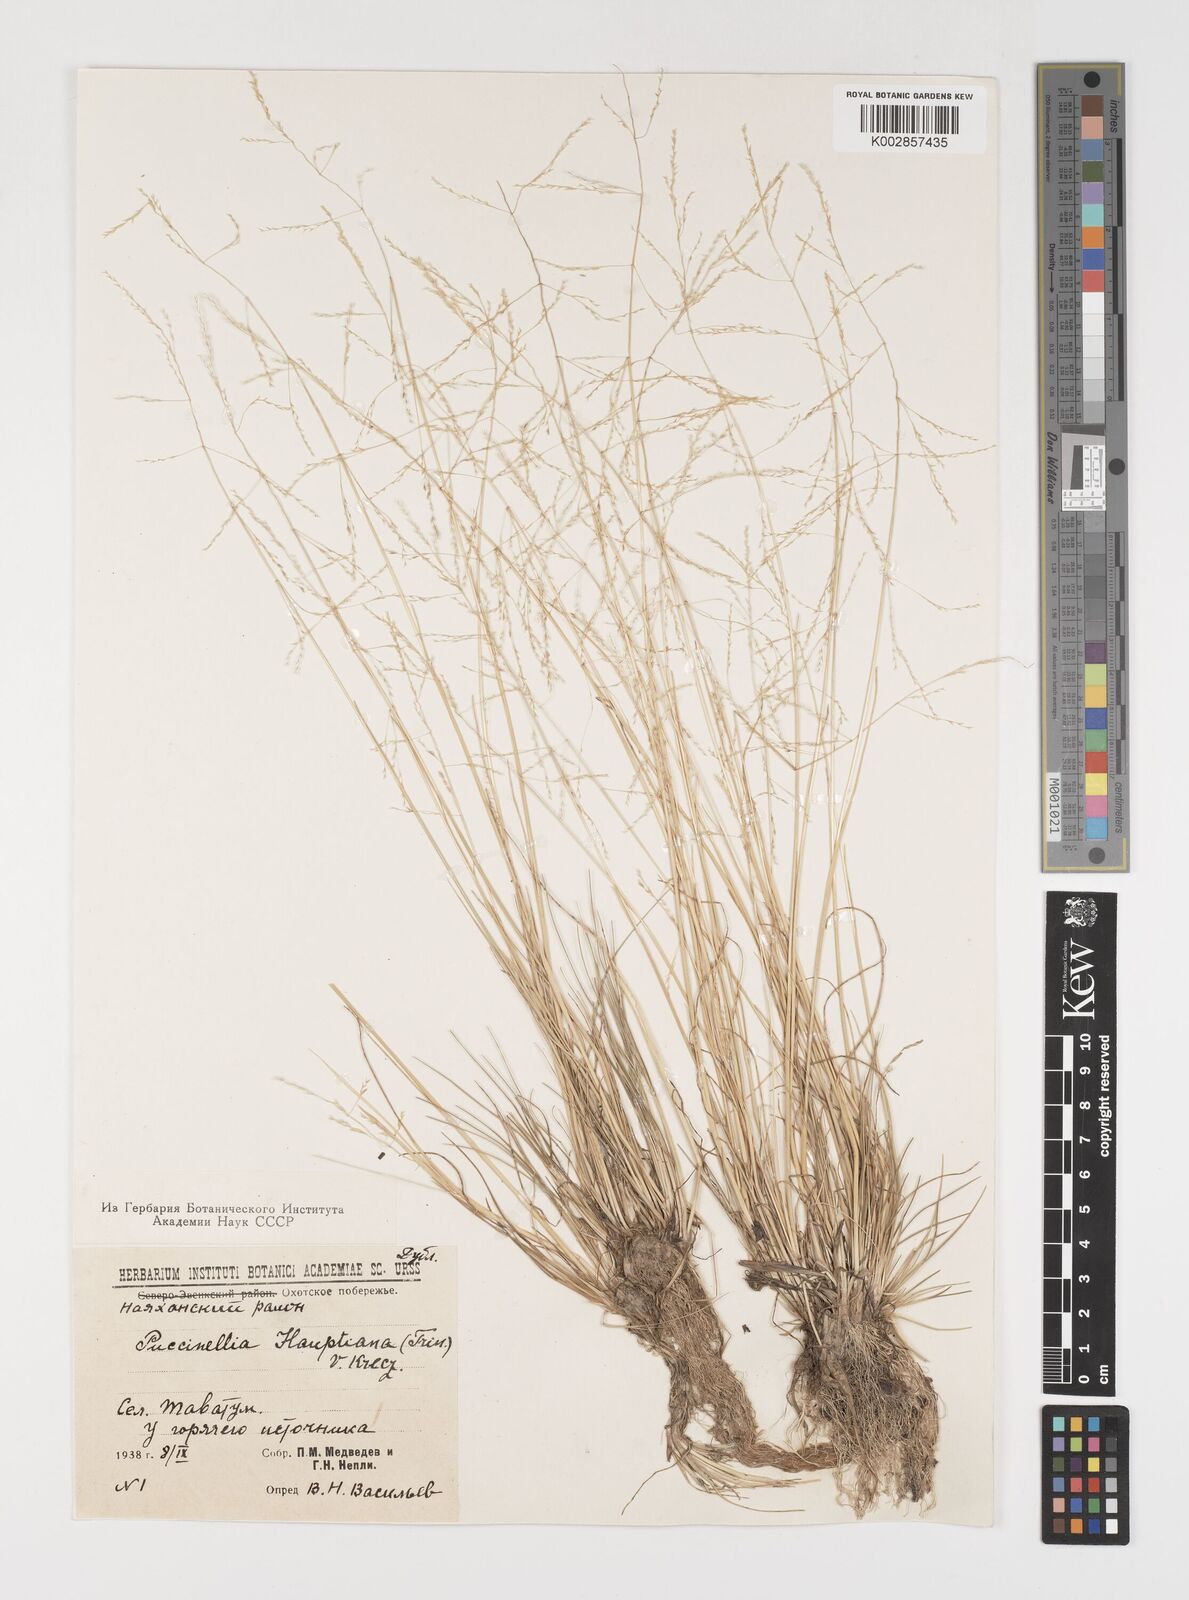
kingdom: Plantae
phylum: Tracheophyta
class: Liliopsida
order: Poales
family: Poaceae
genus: Puccinellia
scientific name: Puccinellia distans
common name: Weeping alkaligrass
